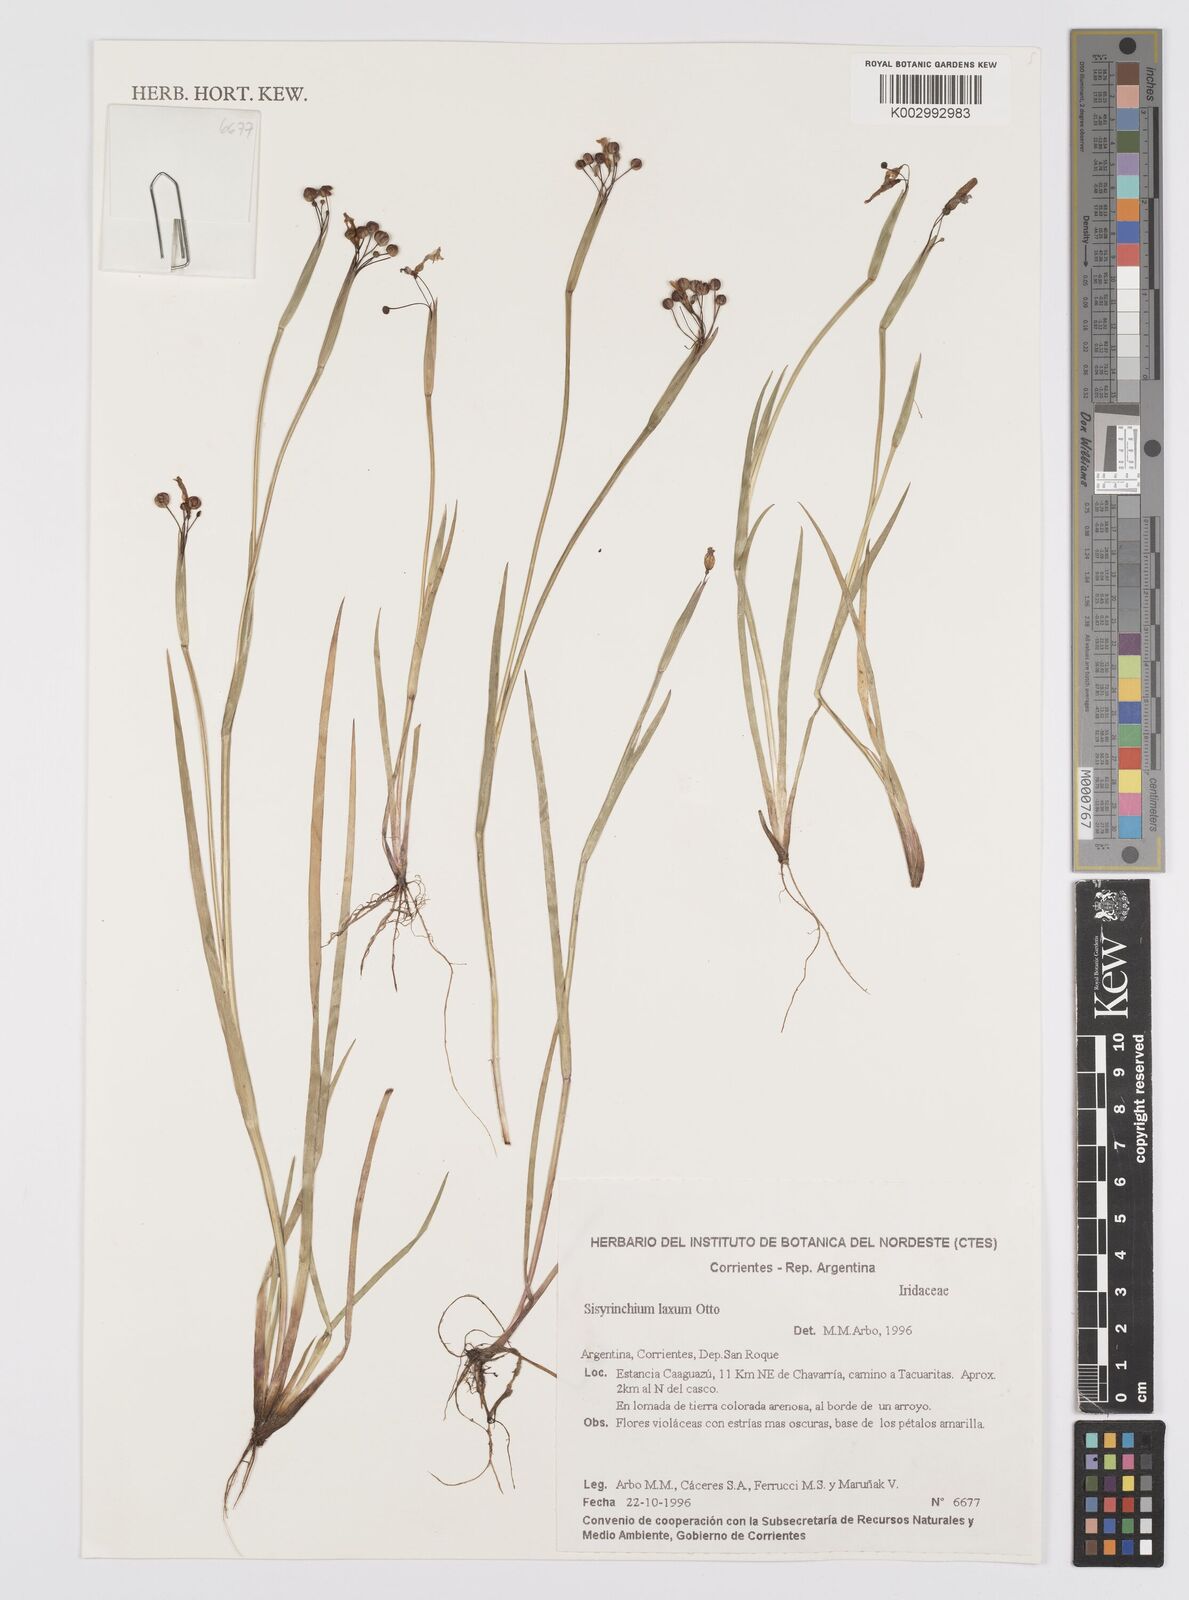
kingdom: Plantae
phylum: Tracheophyta
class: Liliopsida
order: Asparagales
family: Iridaceae
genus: Sisyrinchium
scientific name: Sisyrinchium laxum
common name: Veined yellow-eyed-grass
